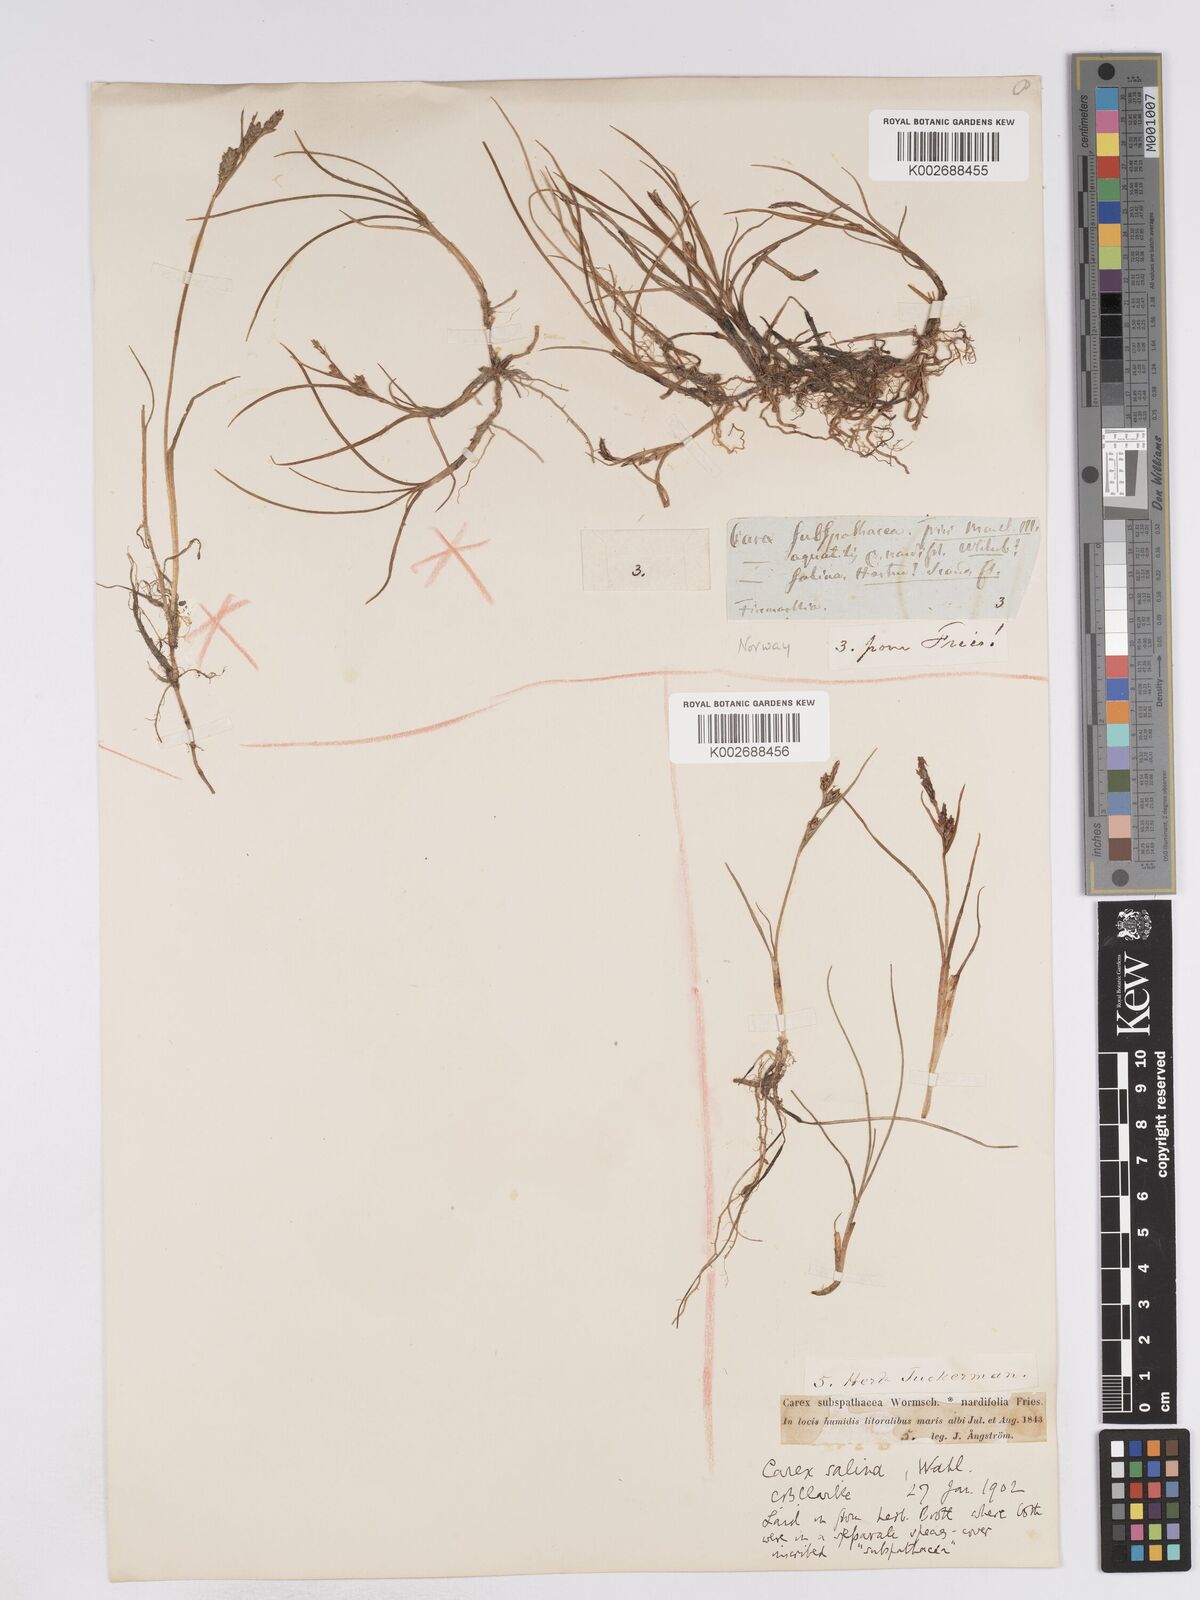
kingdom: Plantae
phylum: Tracheophyta
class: Liliopsida
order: Poales
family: Cyperaceae
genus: Carex
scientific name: Carex subspathacea
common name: Hoppner's sedge
